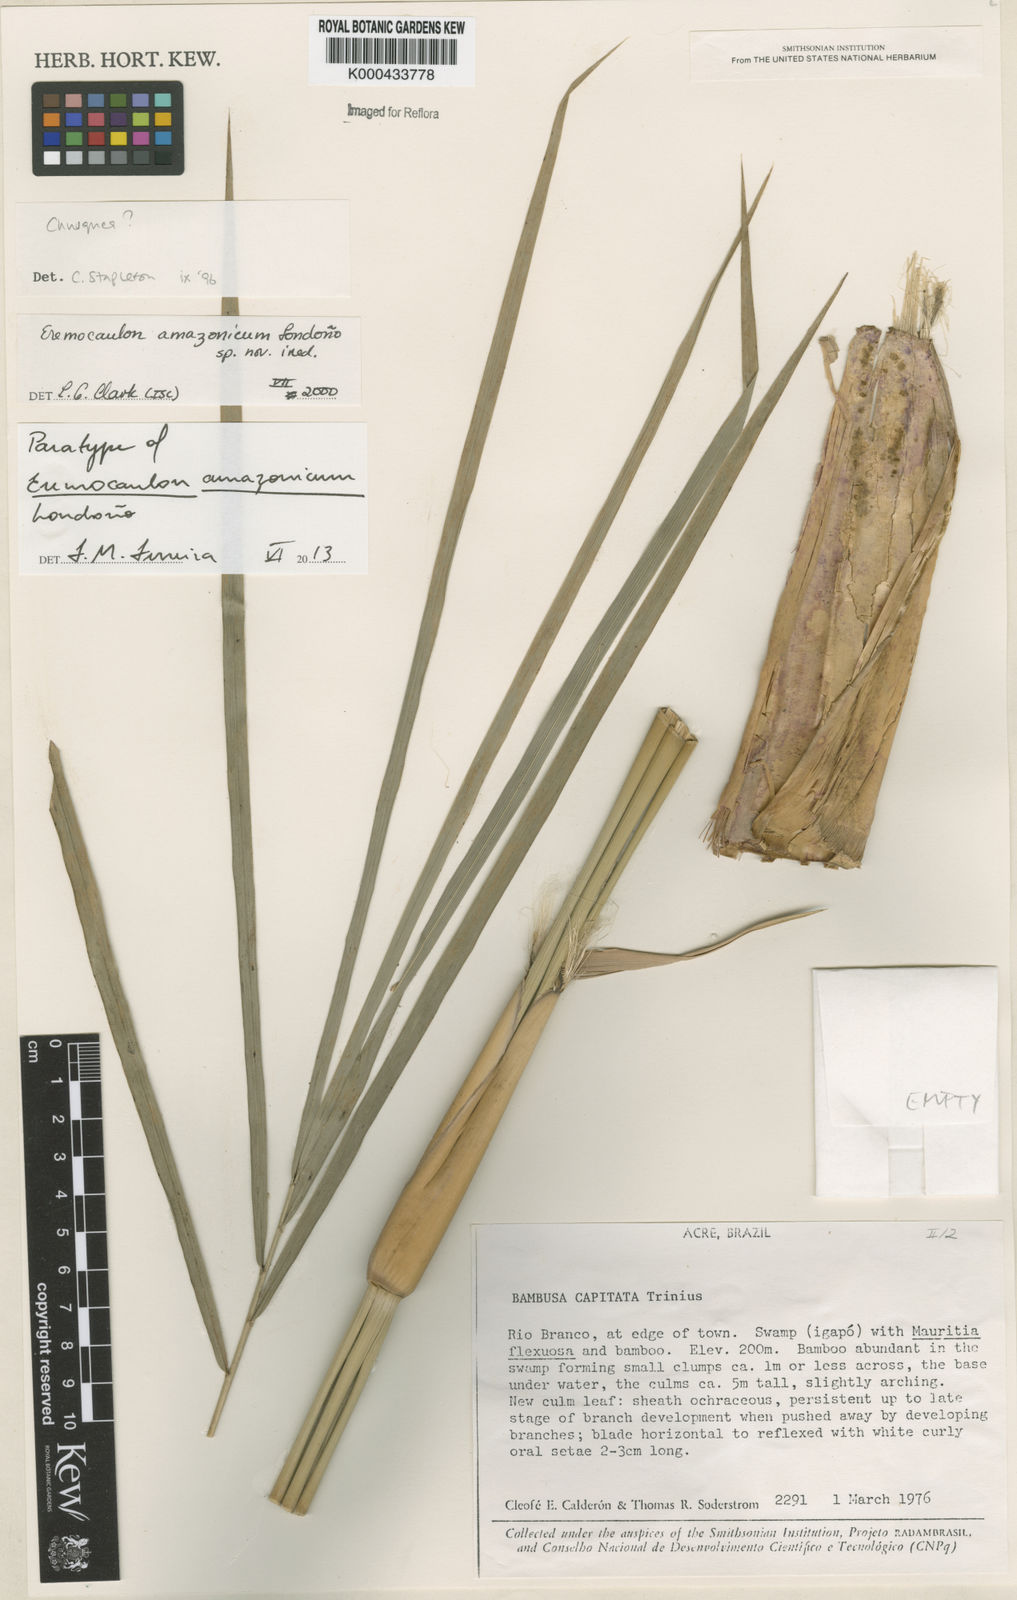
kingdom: Plantae
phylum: Tracheophyta
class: Liliopsida
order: Poales
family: Poaceae
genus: Eremocaulon
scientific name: Eremocaulon
